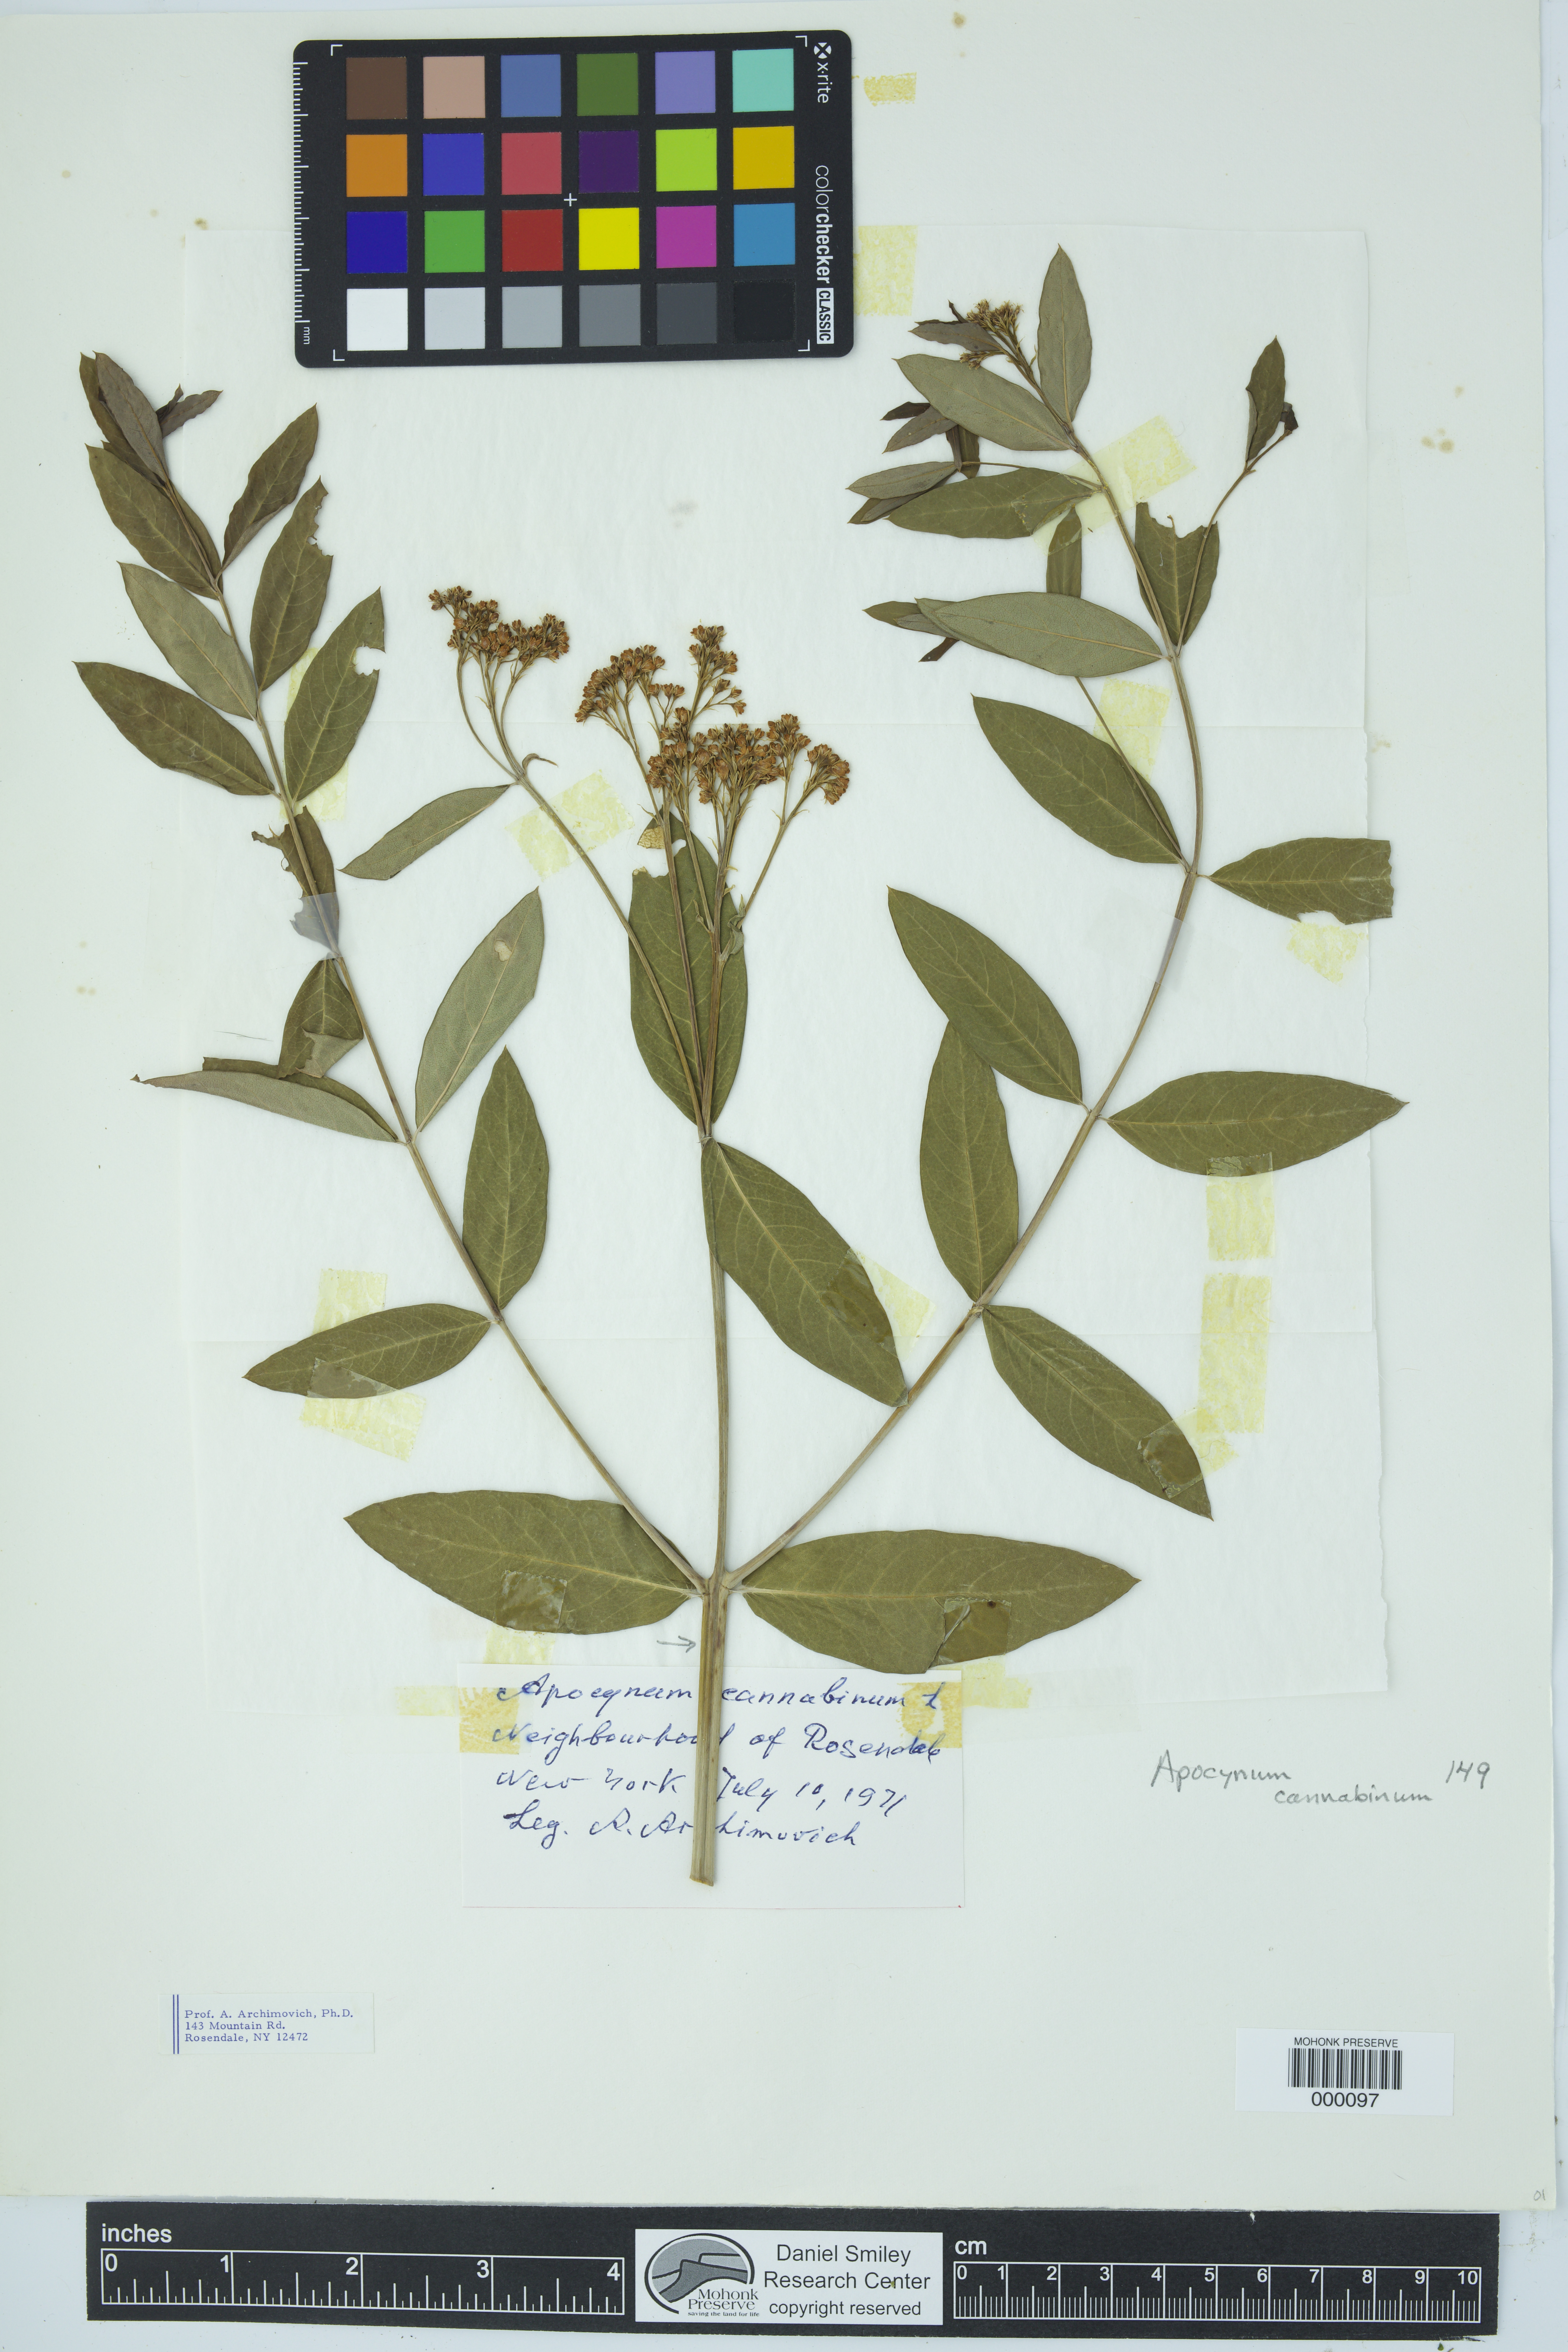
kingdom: Plantae
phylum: Tracheophyta
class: Magnoliopsida
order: Gentianales
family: Apocynaceae
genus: Apocynum
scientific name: Apocynum cannabinum
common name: Hemp dogbane
